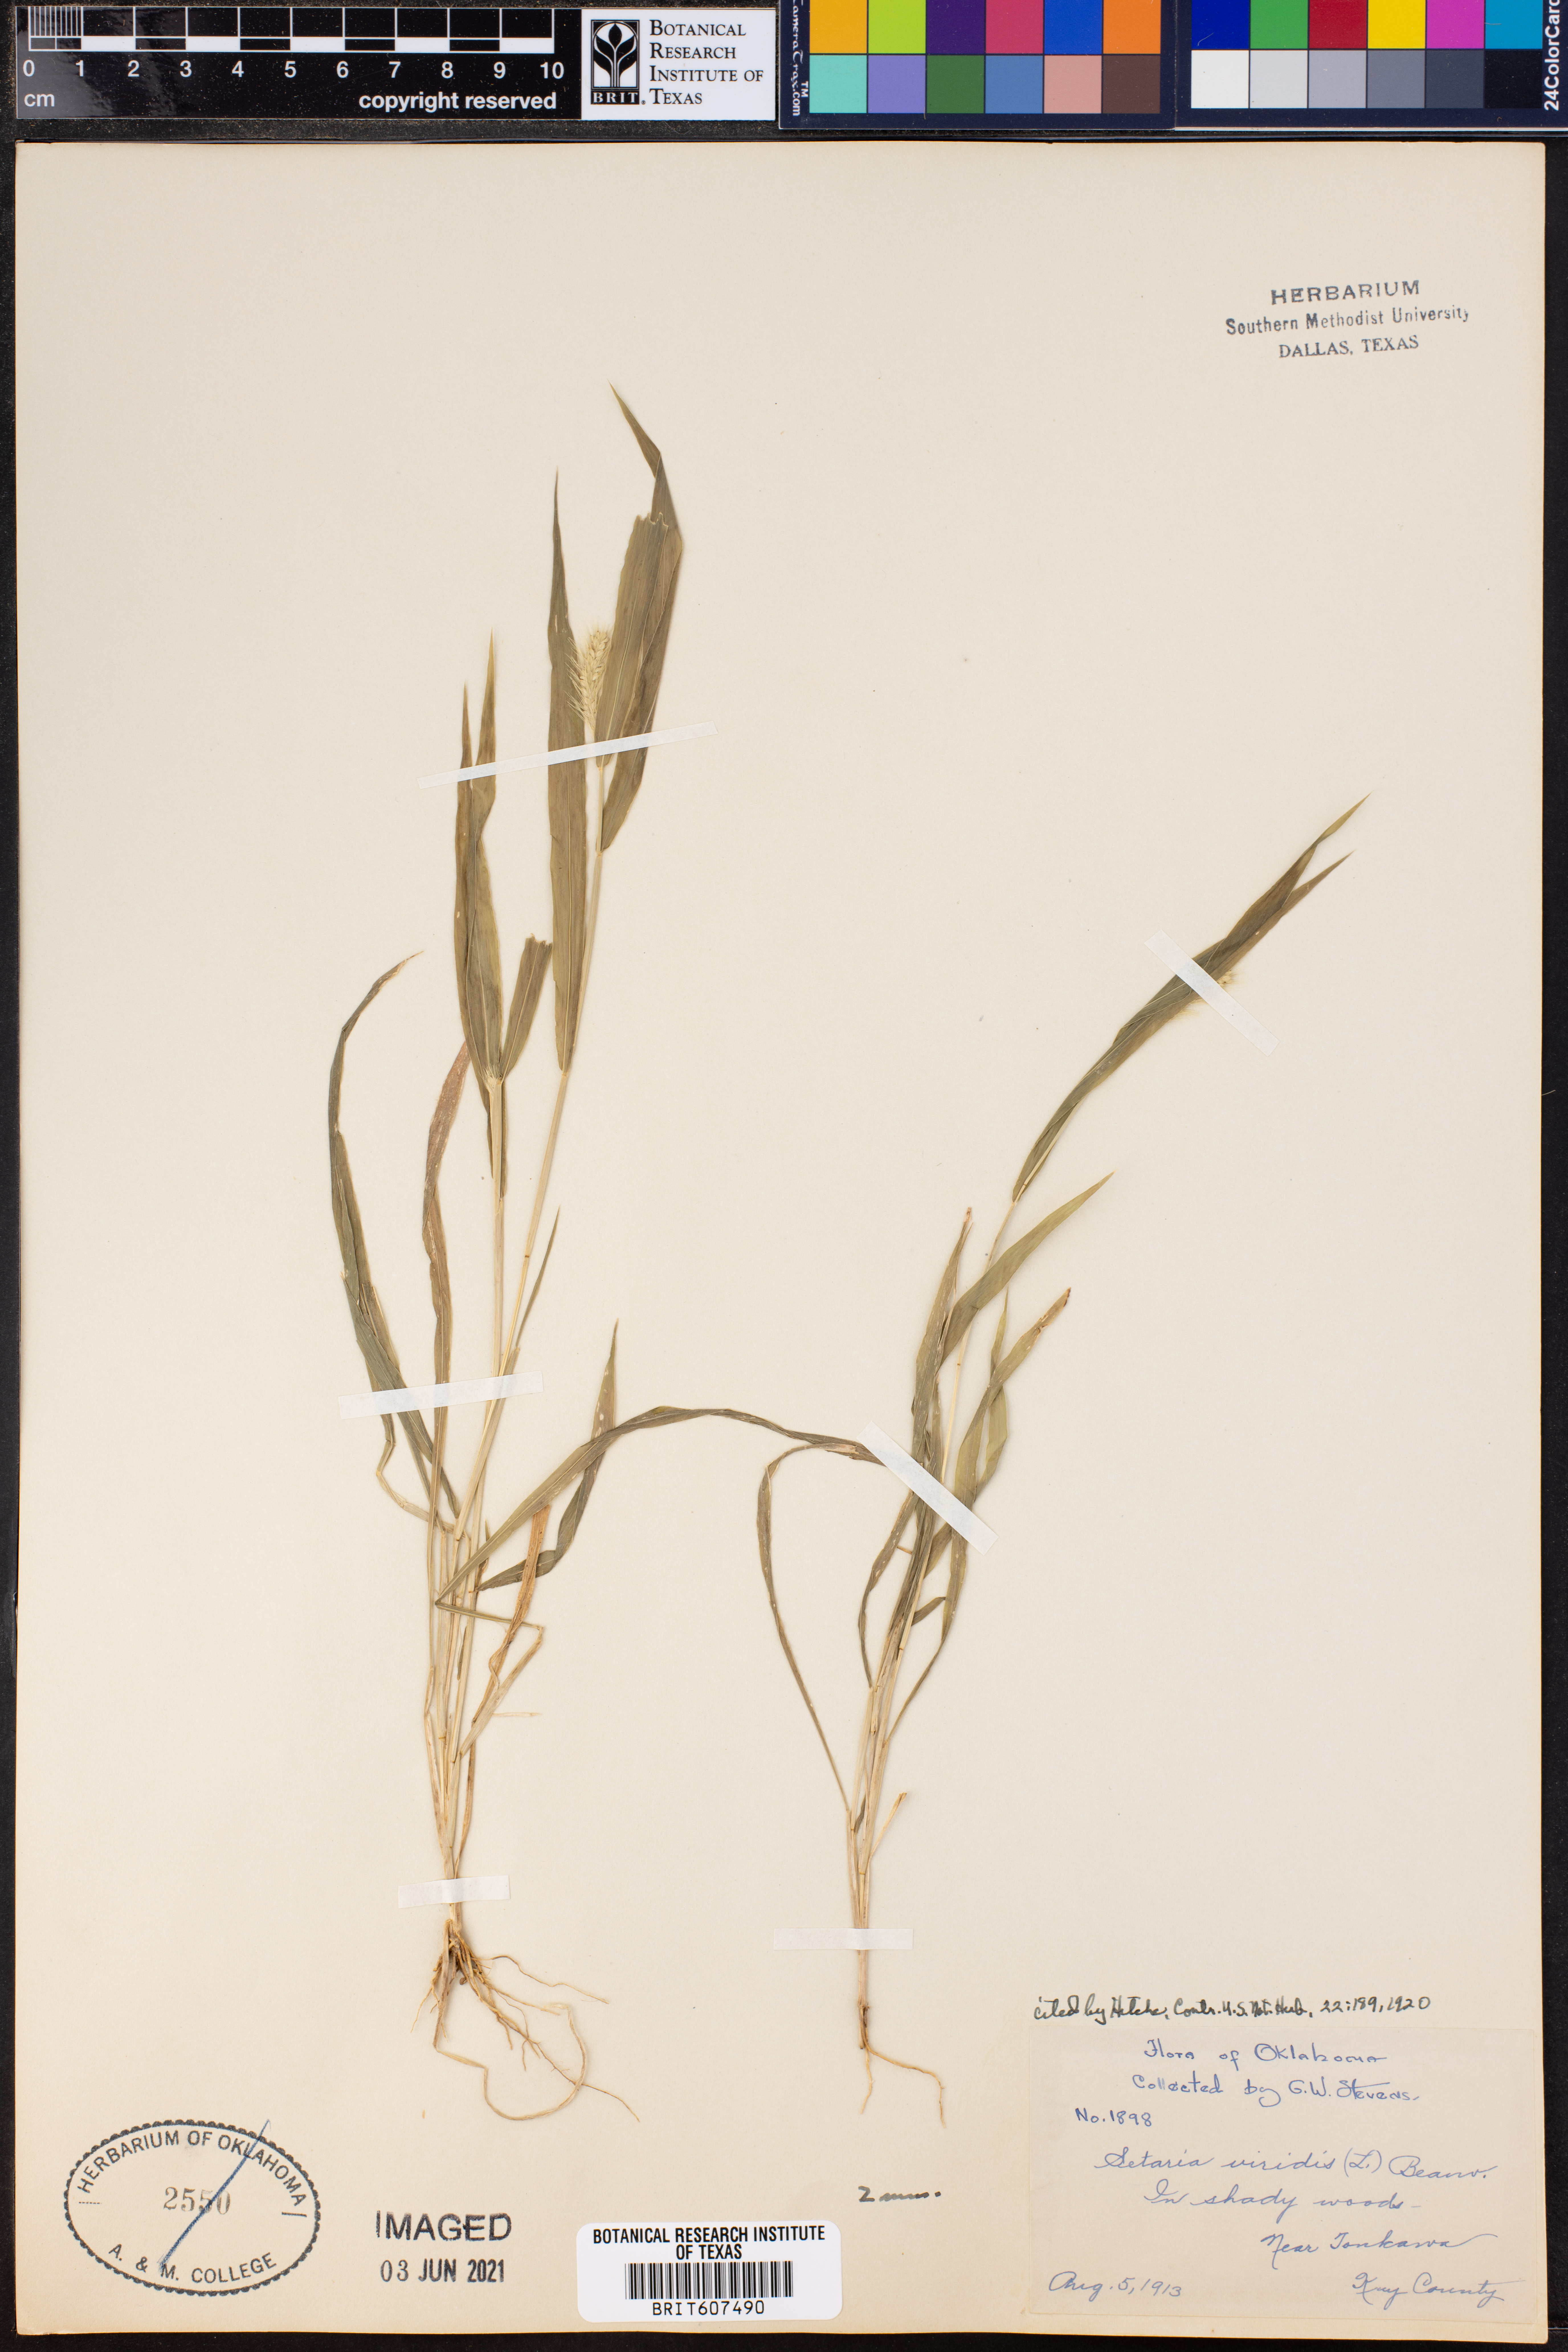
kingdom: Plantae
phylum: Tracheophyta
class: Liliopsida
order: Poales
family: Poaceae
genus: Setaria
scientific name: Setaria viridis
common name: Green bristlegrass
